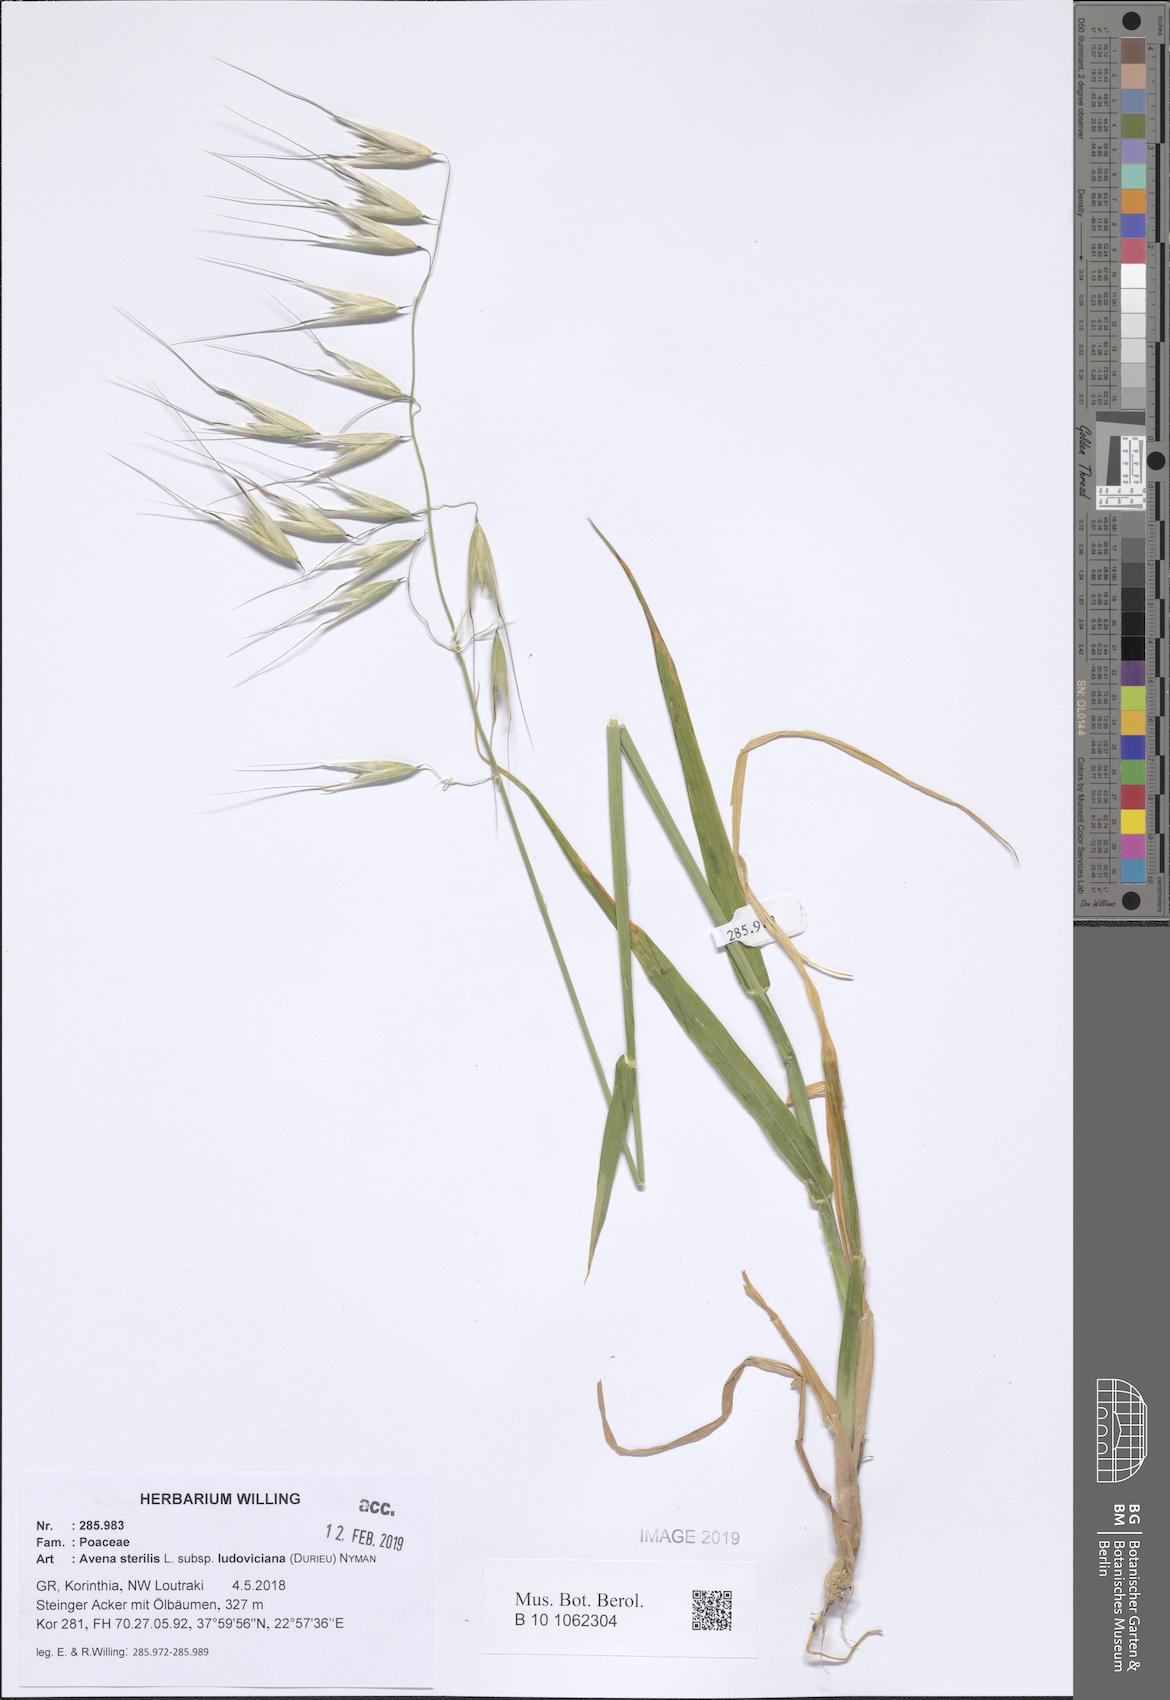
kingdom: Plantae
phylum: Tracheophyta
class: Liliopsida
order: Poales
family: Poaceae
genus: Avena
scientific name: Avena sterilis
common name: Animated oat
